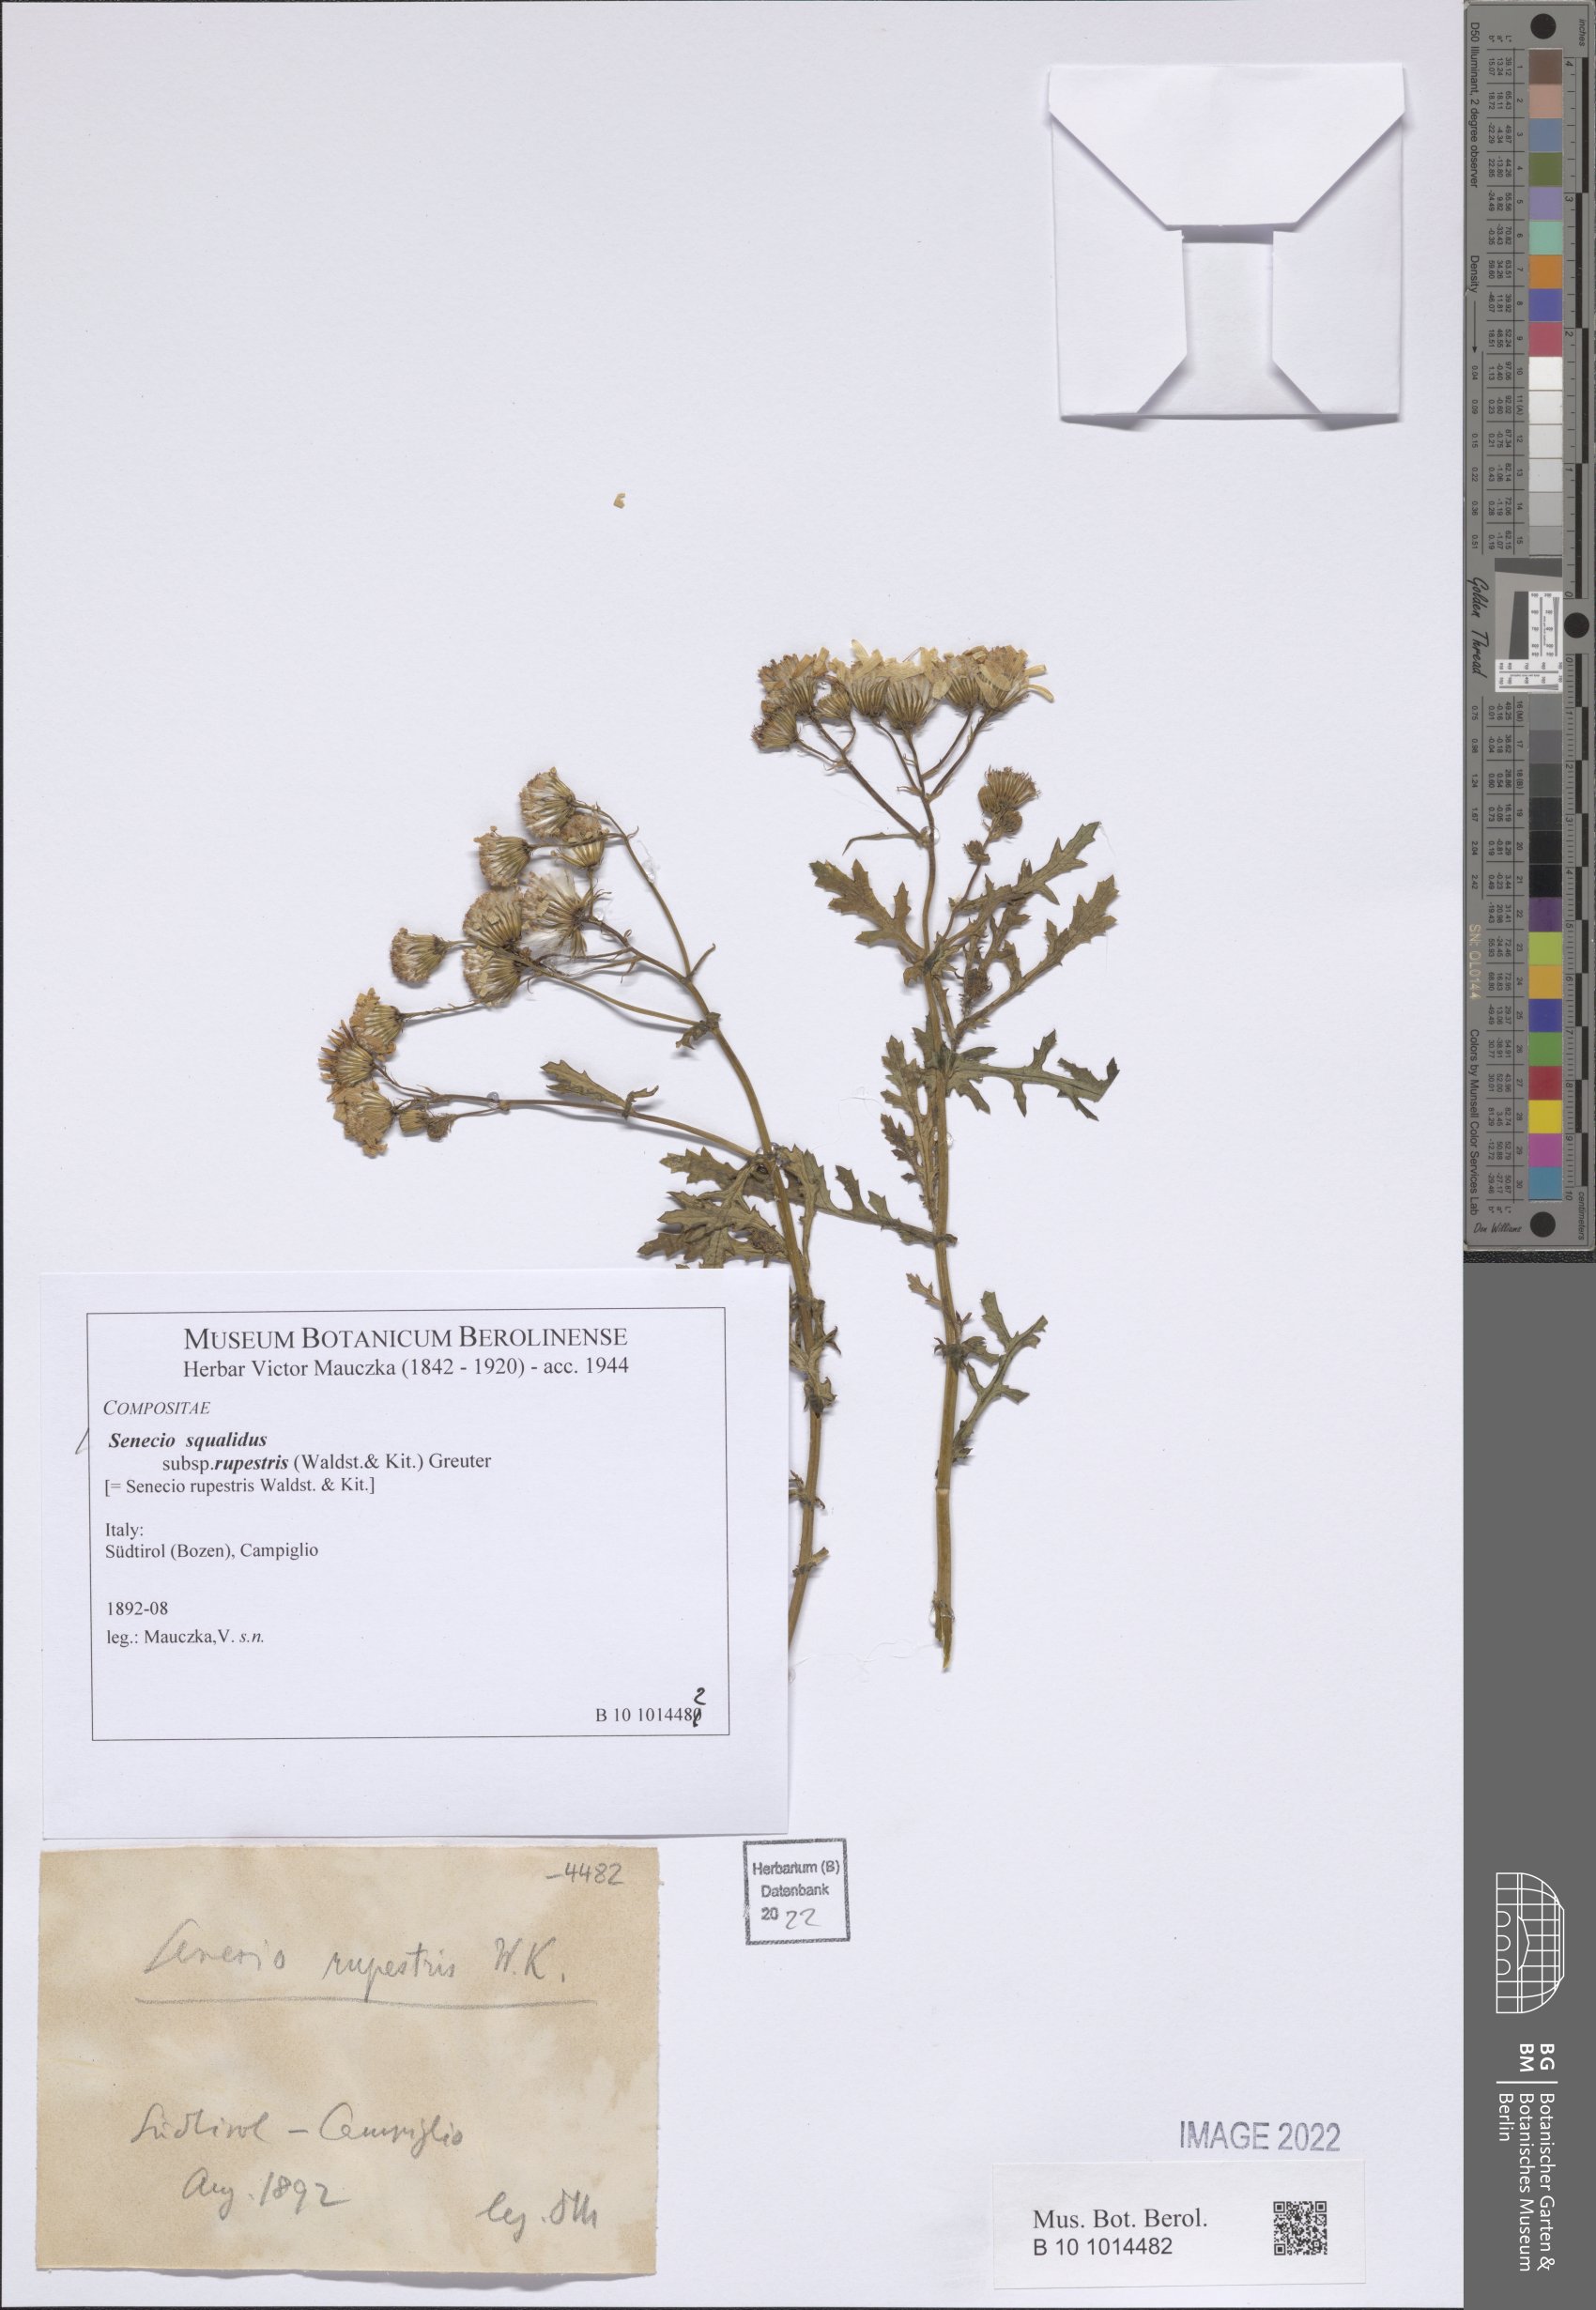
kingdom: Plantae
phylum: Tracheophyta
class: Magnoliopsida
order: Asterales
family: Asteraceae
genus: Senecio
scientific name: Senecio rupestris
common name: Rock ragwort
